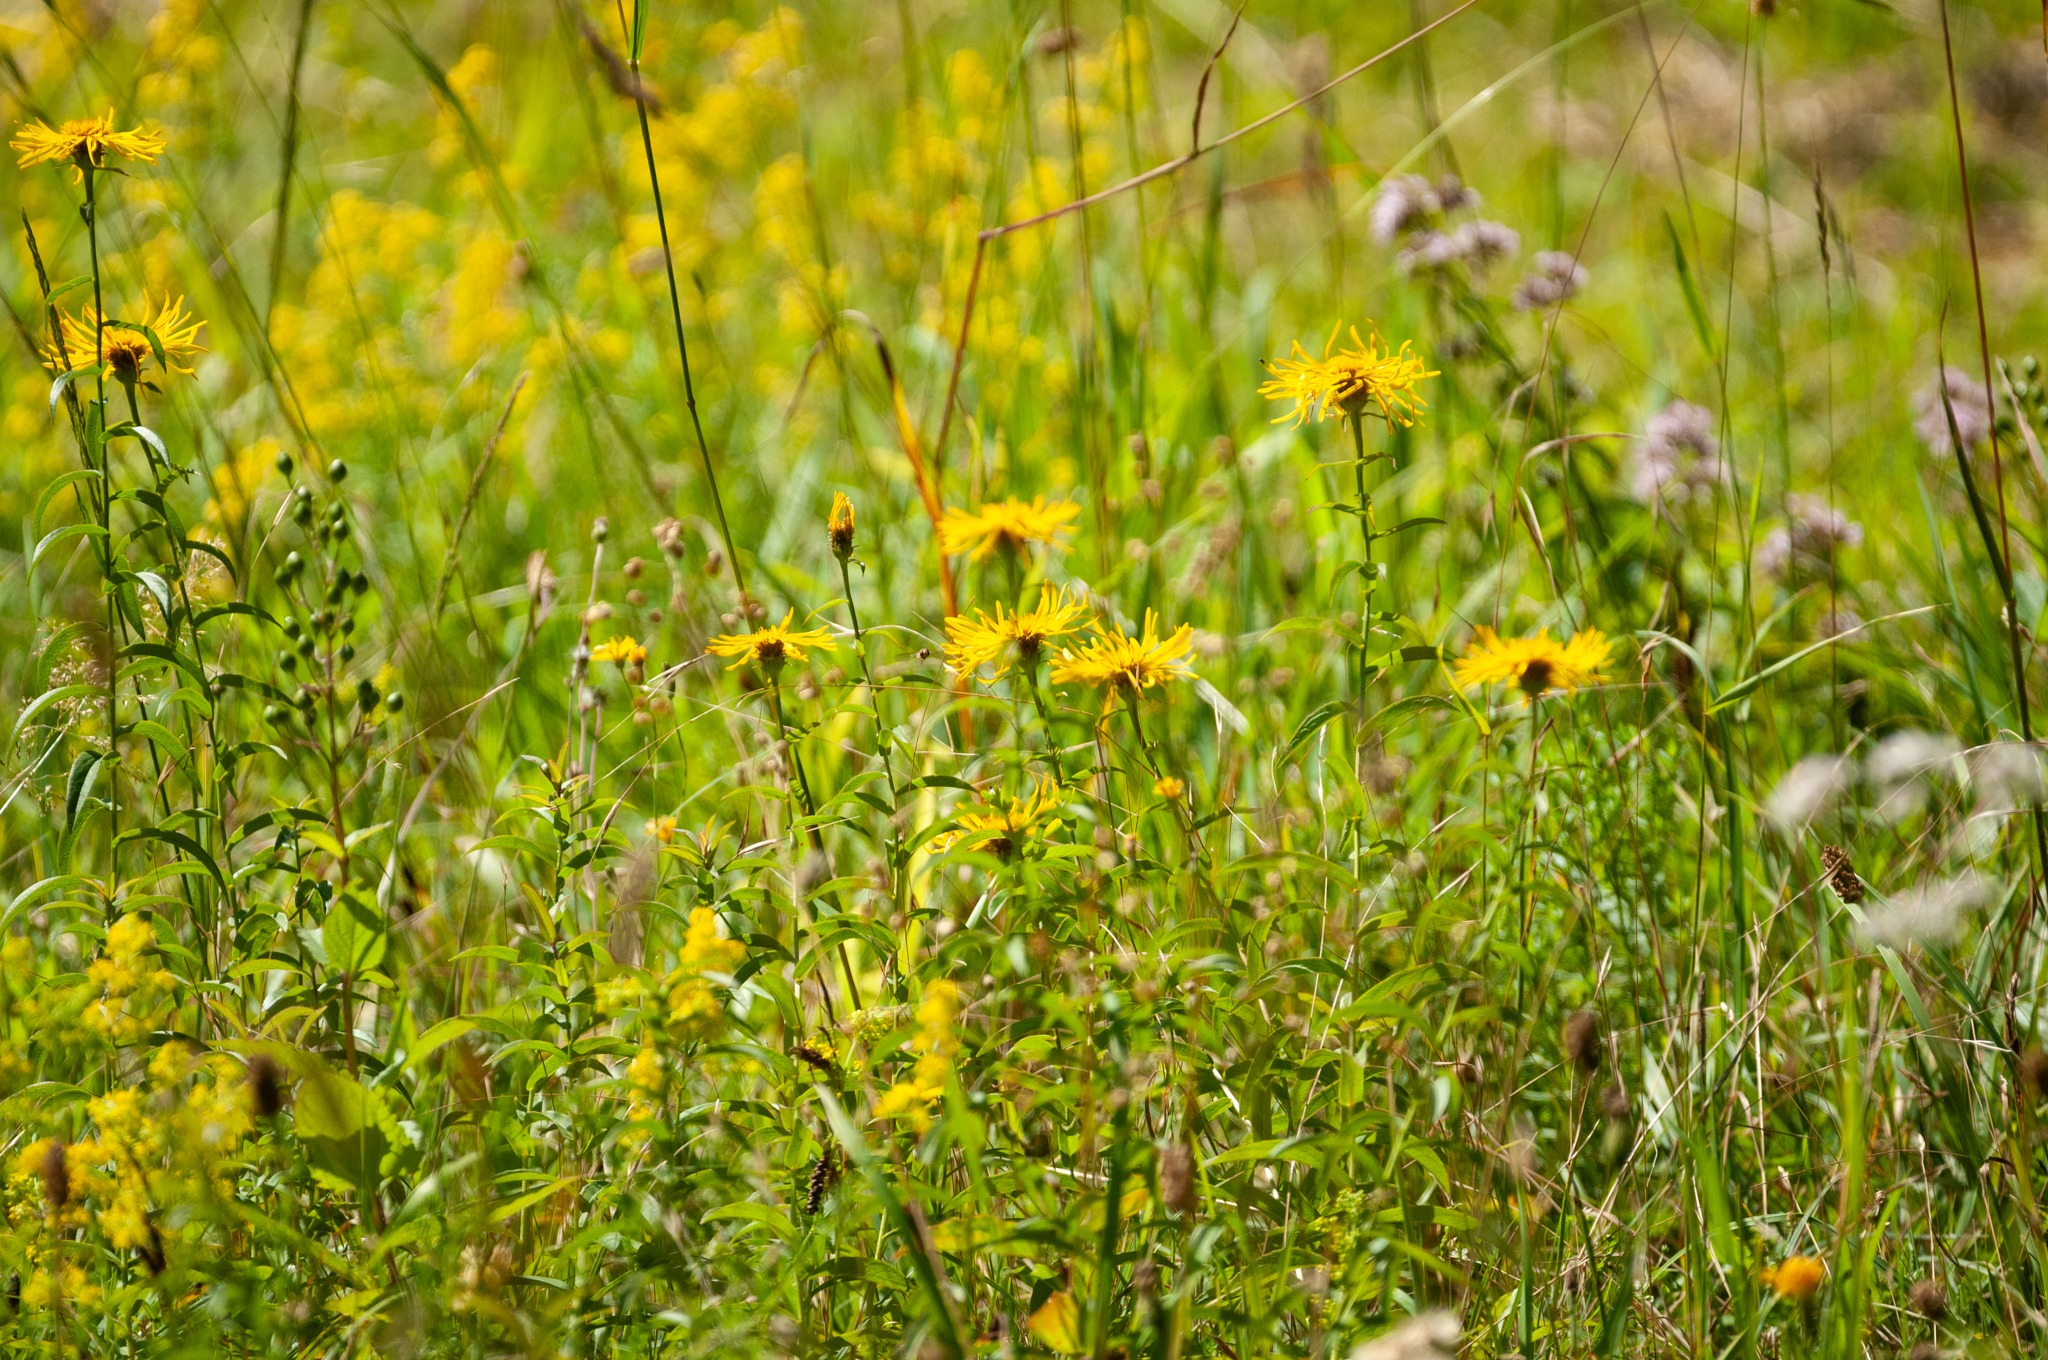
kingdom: Plantae
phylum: Tracheophyta
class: Magnoliopsida
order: Asterales
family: Asteraceae
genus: Pentanema
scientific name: Pentanema salicinum
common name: Pile-alant
